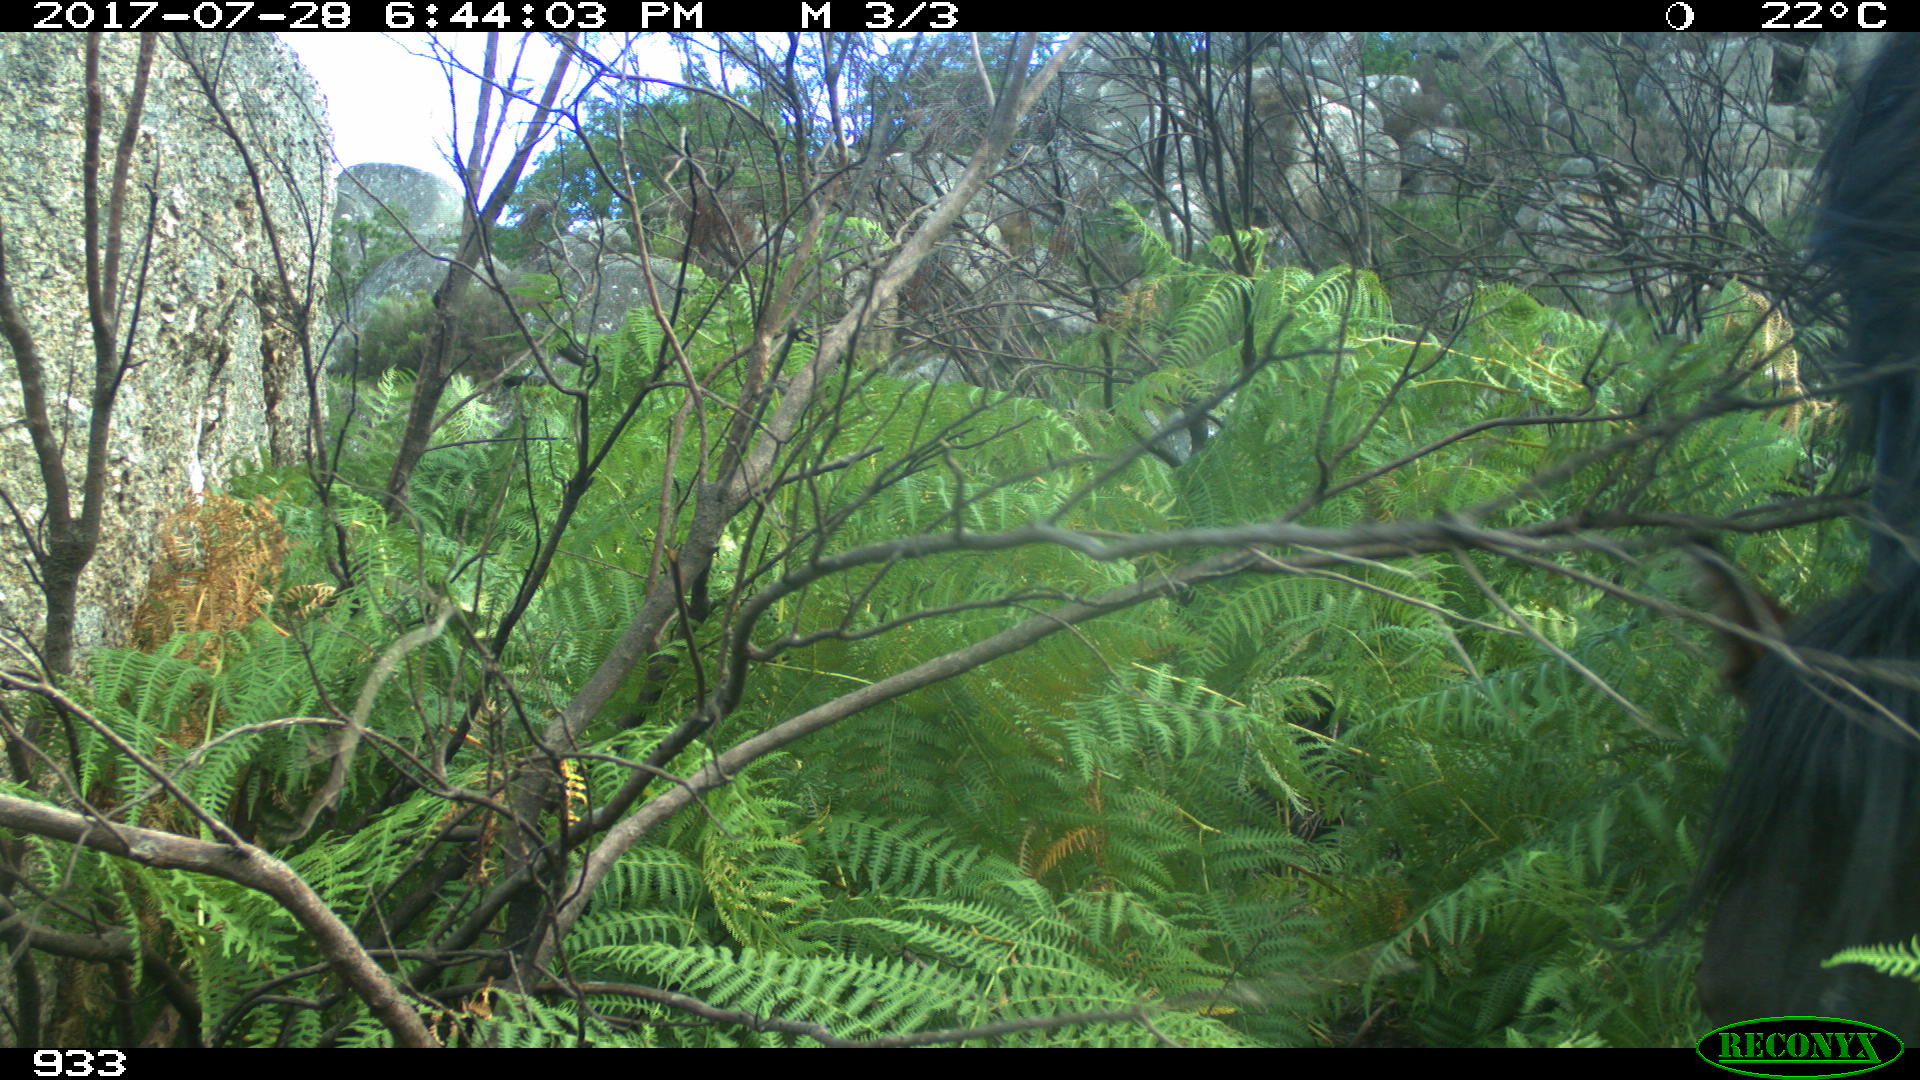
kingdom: Animalia
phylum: Chordata
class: Mammalia
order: Perissodactyla
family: Equidae
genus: Equus
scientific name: Equus caballus
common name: Horse
